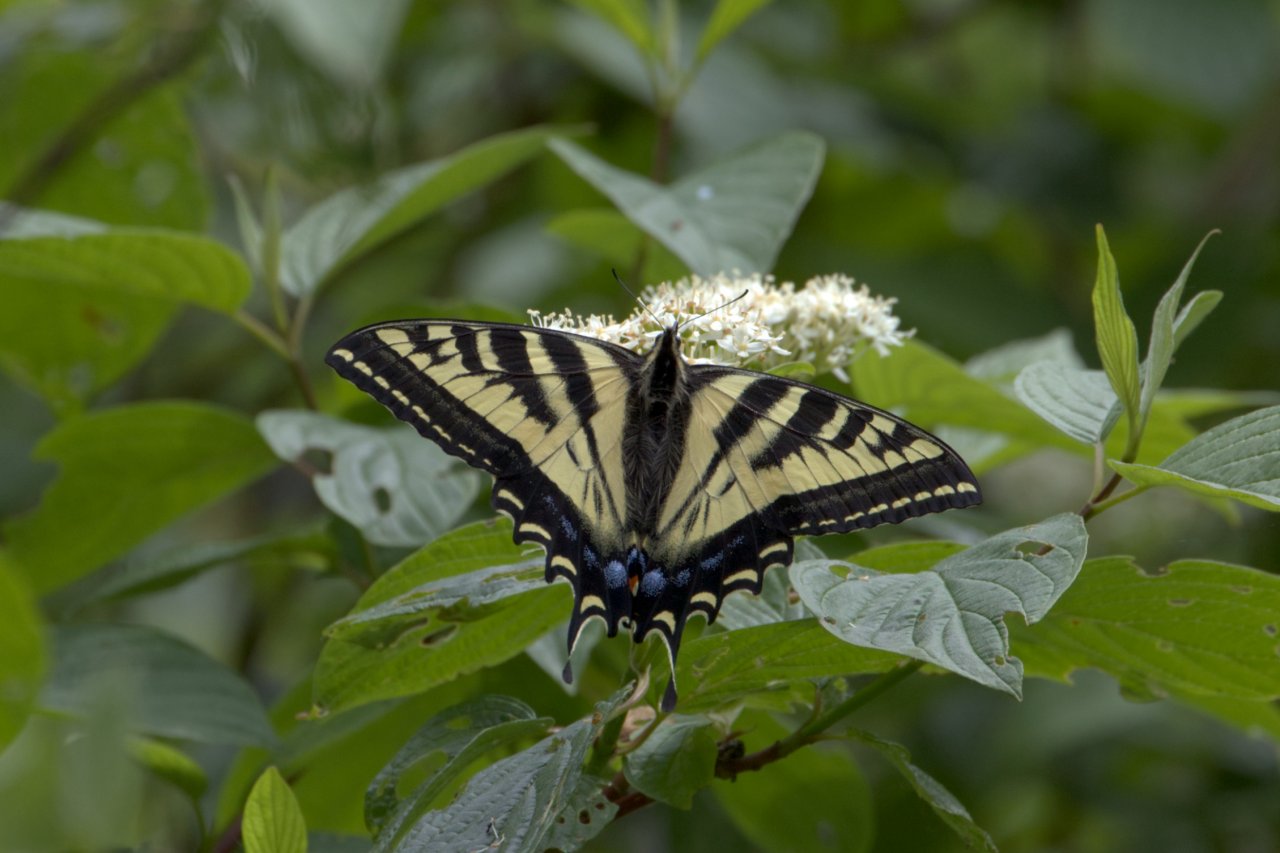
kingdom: Animalia
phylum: Arthropoda
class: Insecta
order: Lepidoptera
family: Papilionidae
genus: Pterourus
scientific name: Pterourus rutulus
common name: Western Tiger Swallowtail
